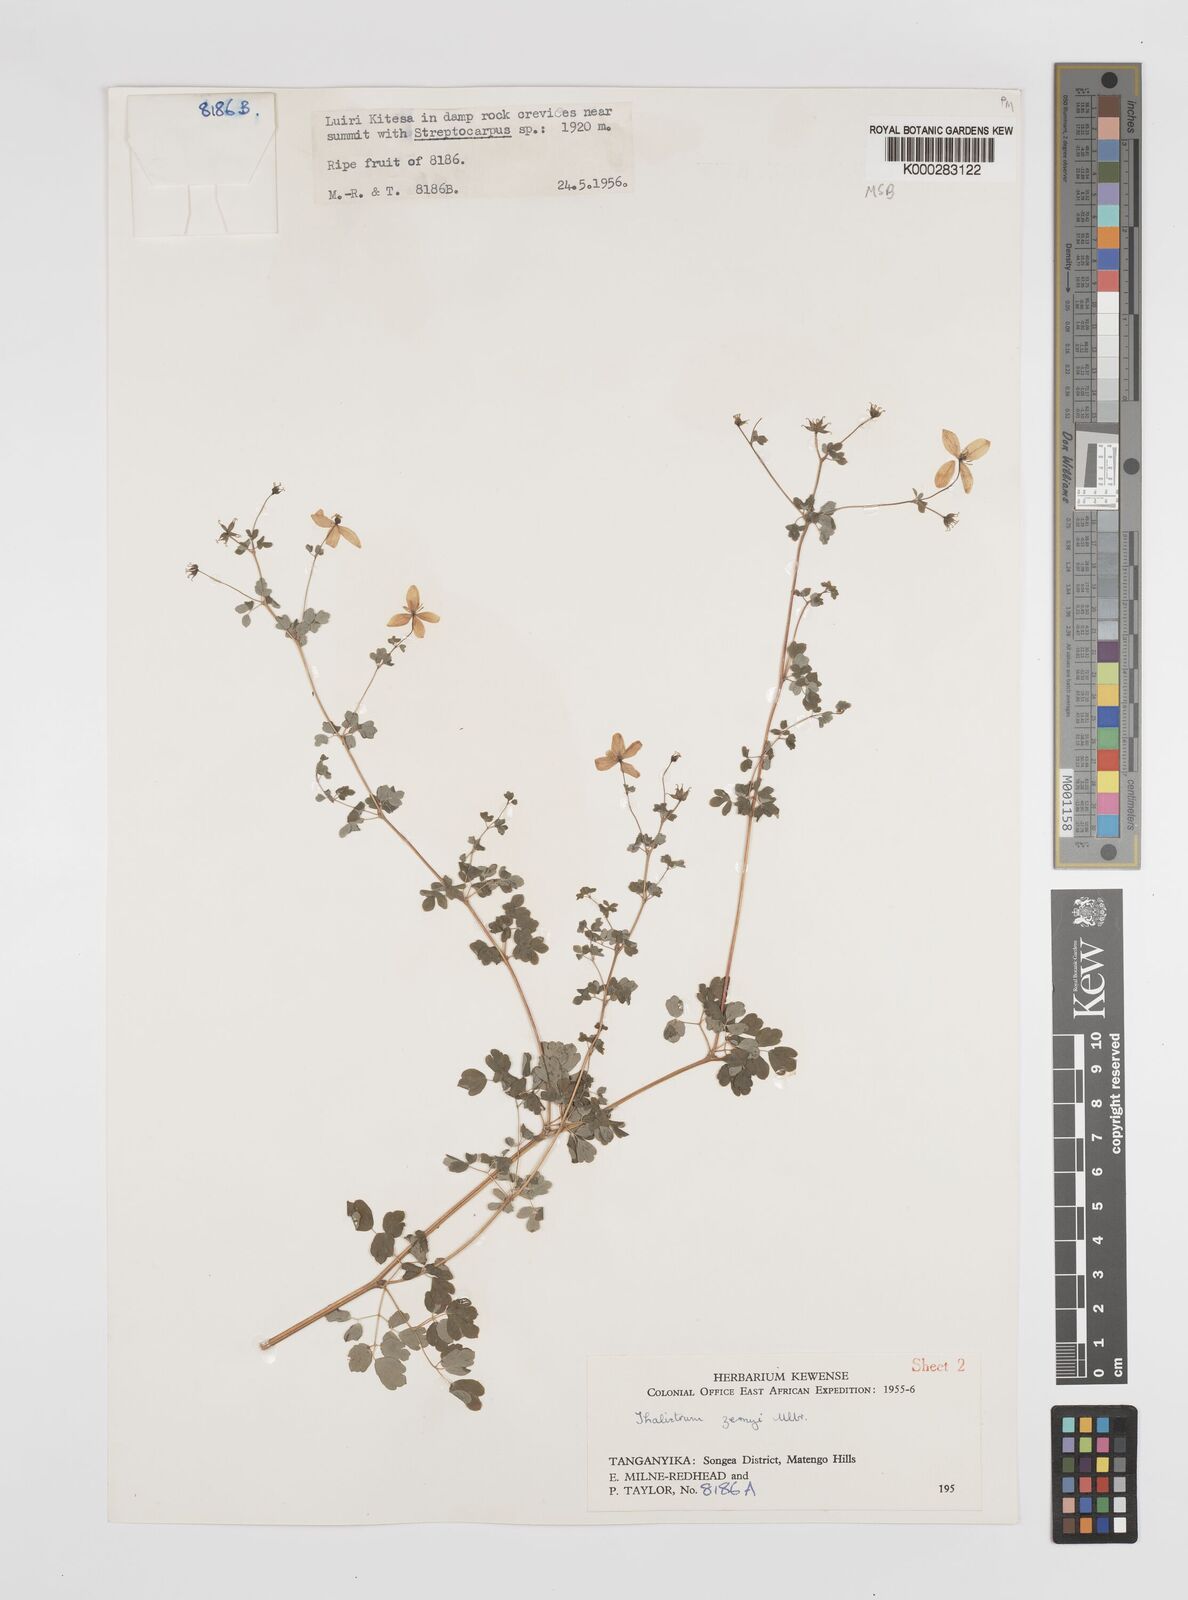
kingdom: Plantae
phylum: Tracheophyta
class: Magnoliopsida
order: Ranunculales
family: Ranunculaceae
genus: Thalictrum
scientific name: Thalictrum zernyi
